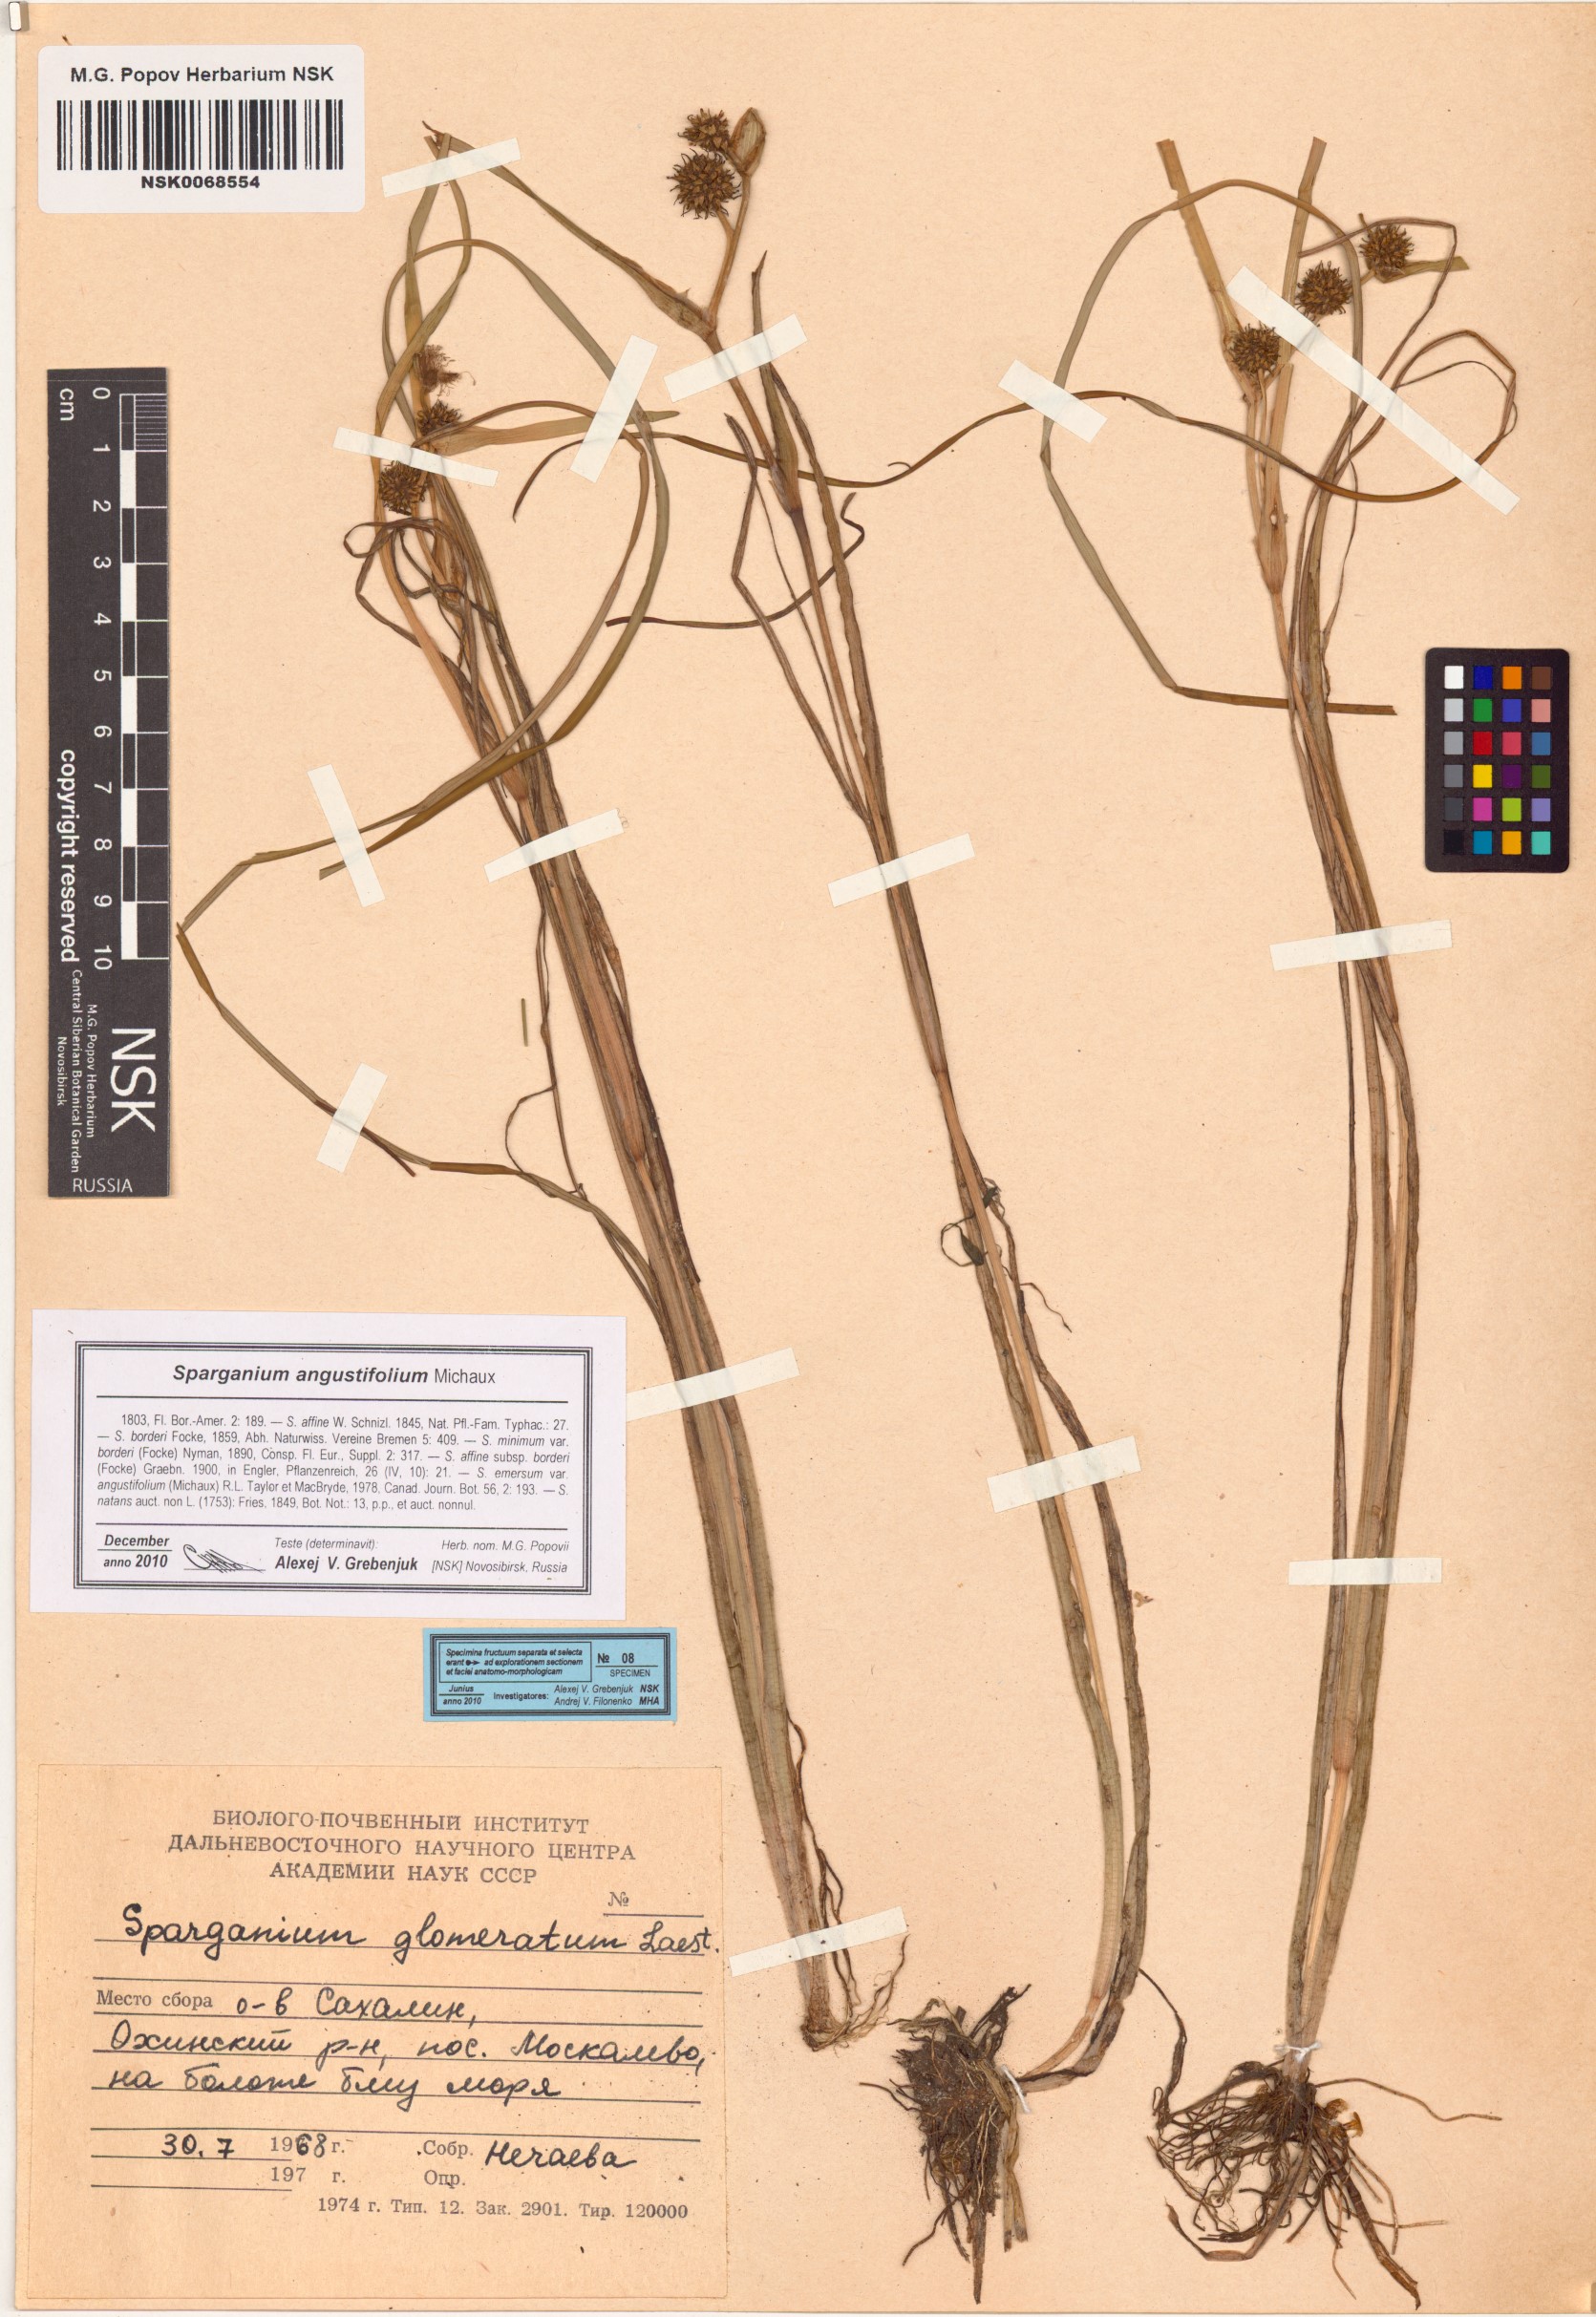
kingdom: Plantae
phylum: Tracheophyta
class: Liliopsida
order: Poales
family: Typhaceae
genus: Sparganium
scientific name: Sparganium angustifolium
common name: Floating bur-reed
